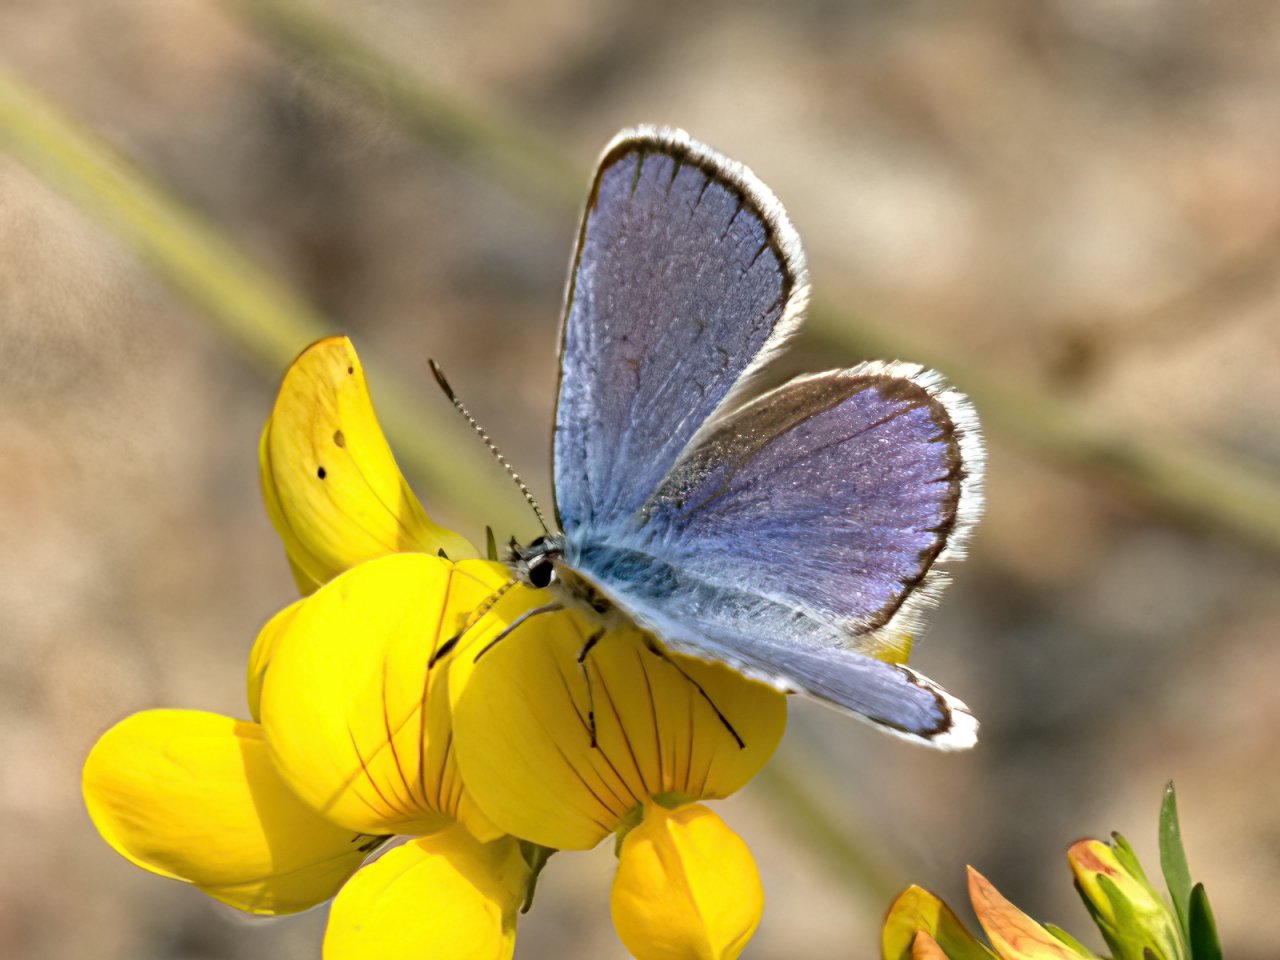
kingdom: Animalia
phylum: Arthropoda
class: Insecta
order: Lepidoptera
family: Lycaenidae
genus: Lycaeides
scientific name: Lycaeides idas
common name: Northern Blue
